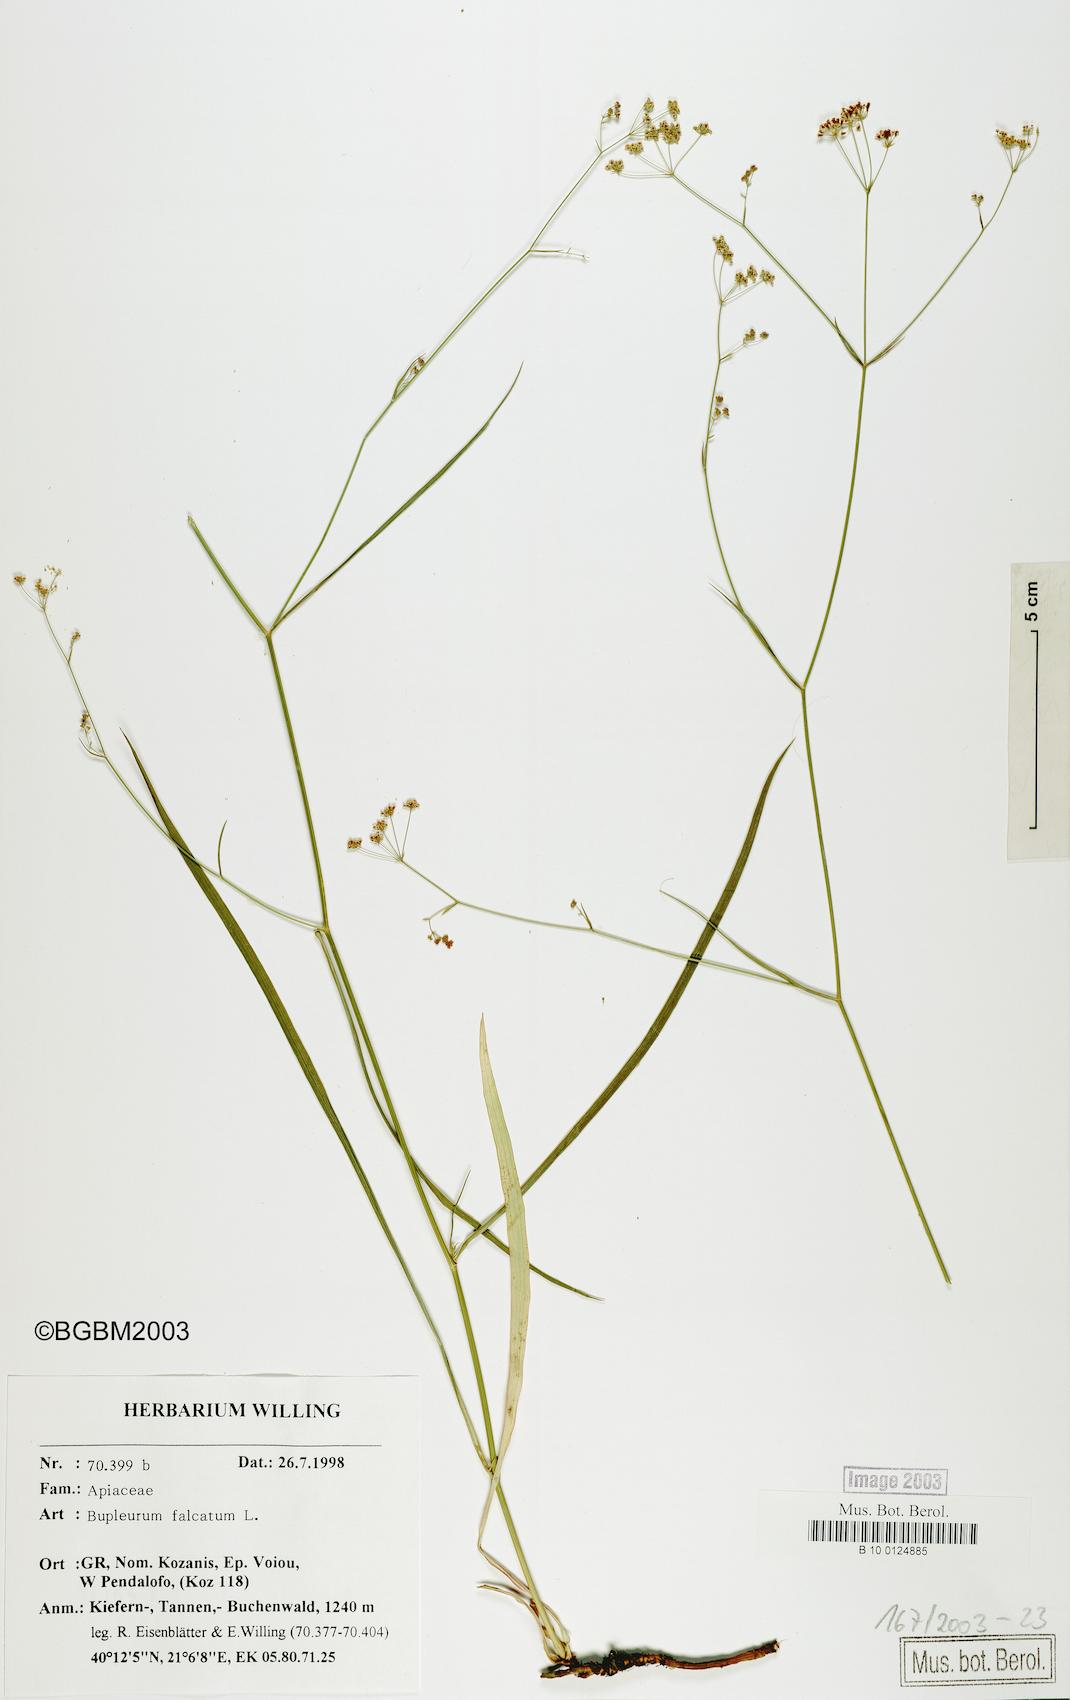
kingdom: Plantae
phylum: Tracheophyta
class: Magnoliopsida
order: Apiales
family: Apiaceae
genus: Bupleurum
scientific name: Bupleurum falcatum
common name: Sickle-leaved hare's-ear
